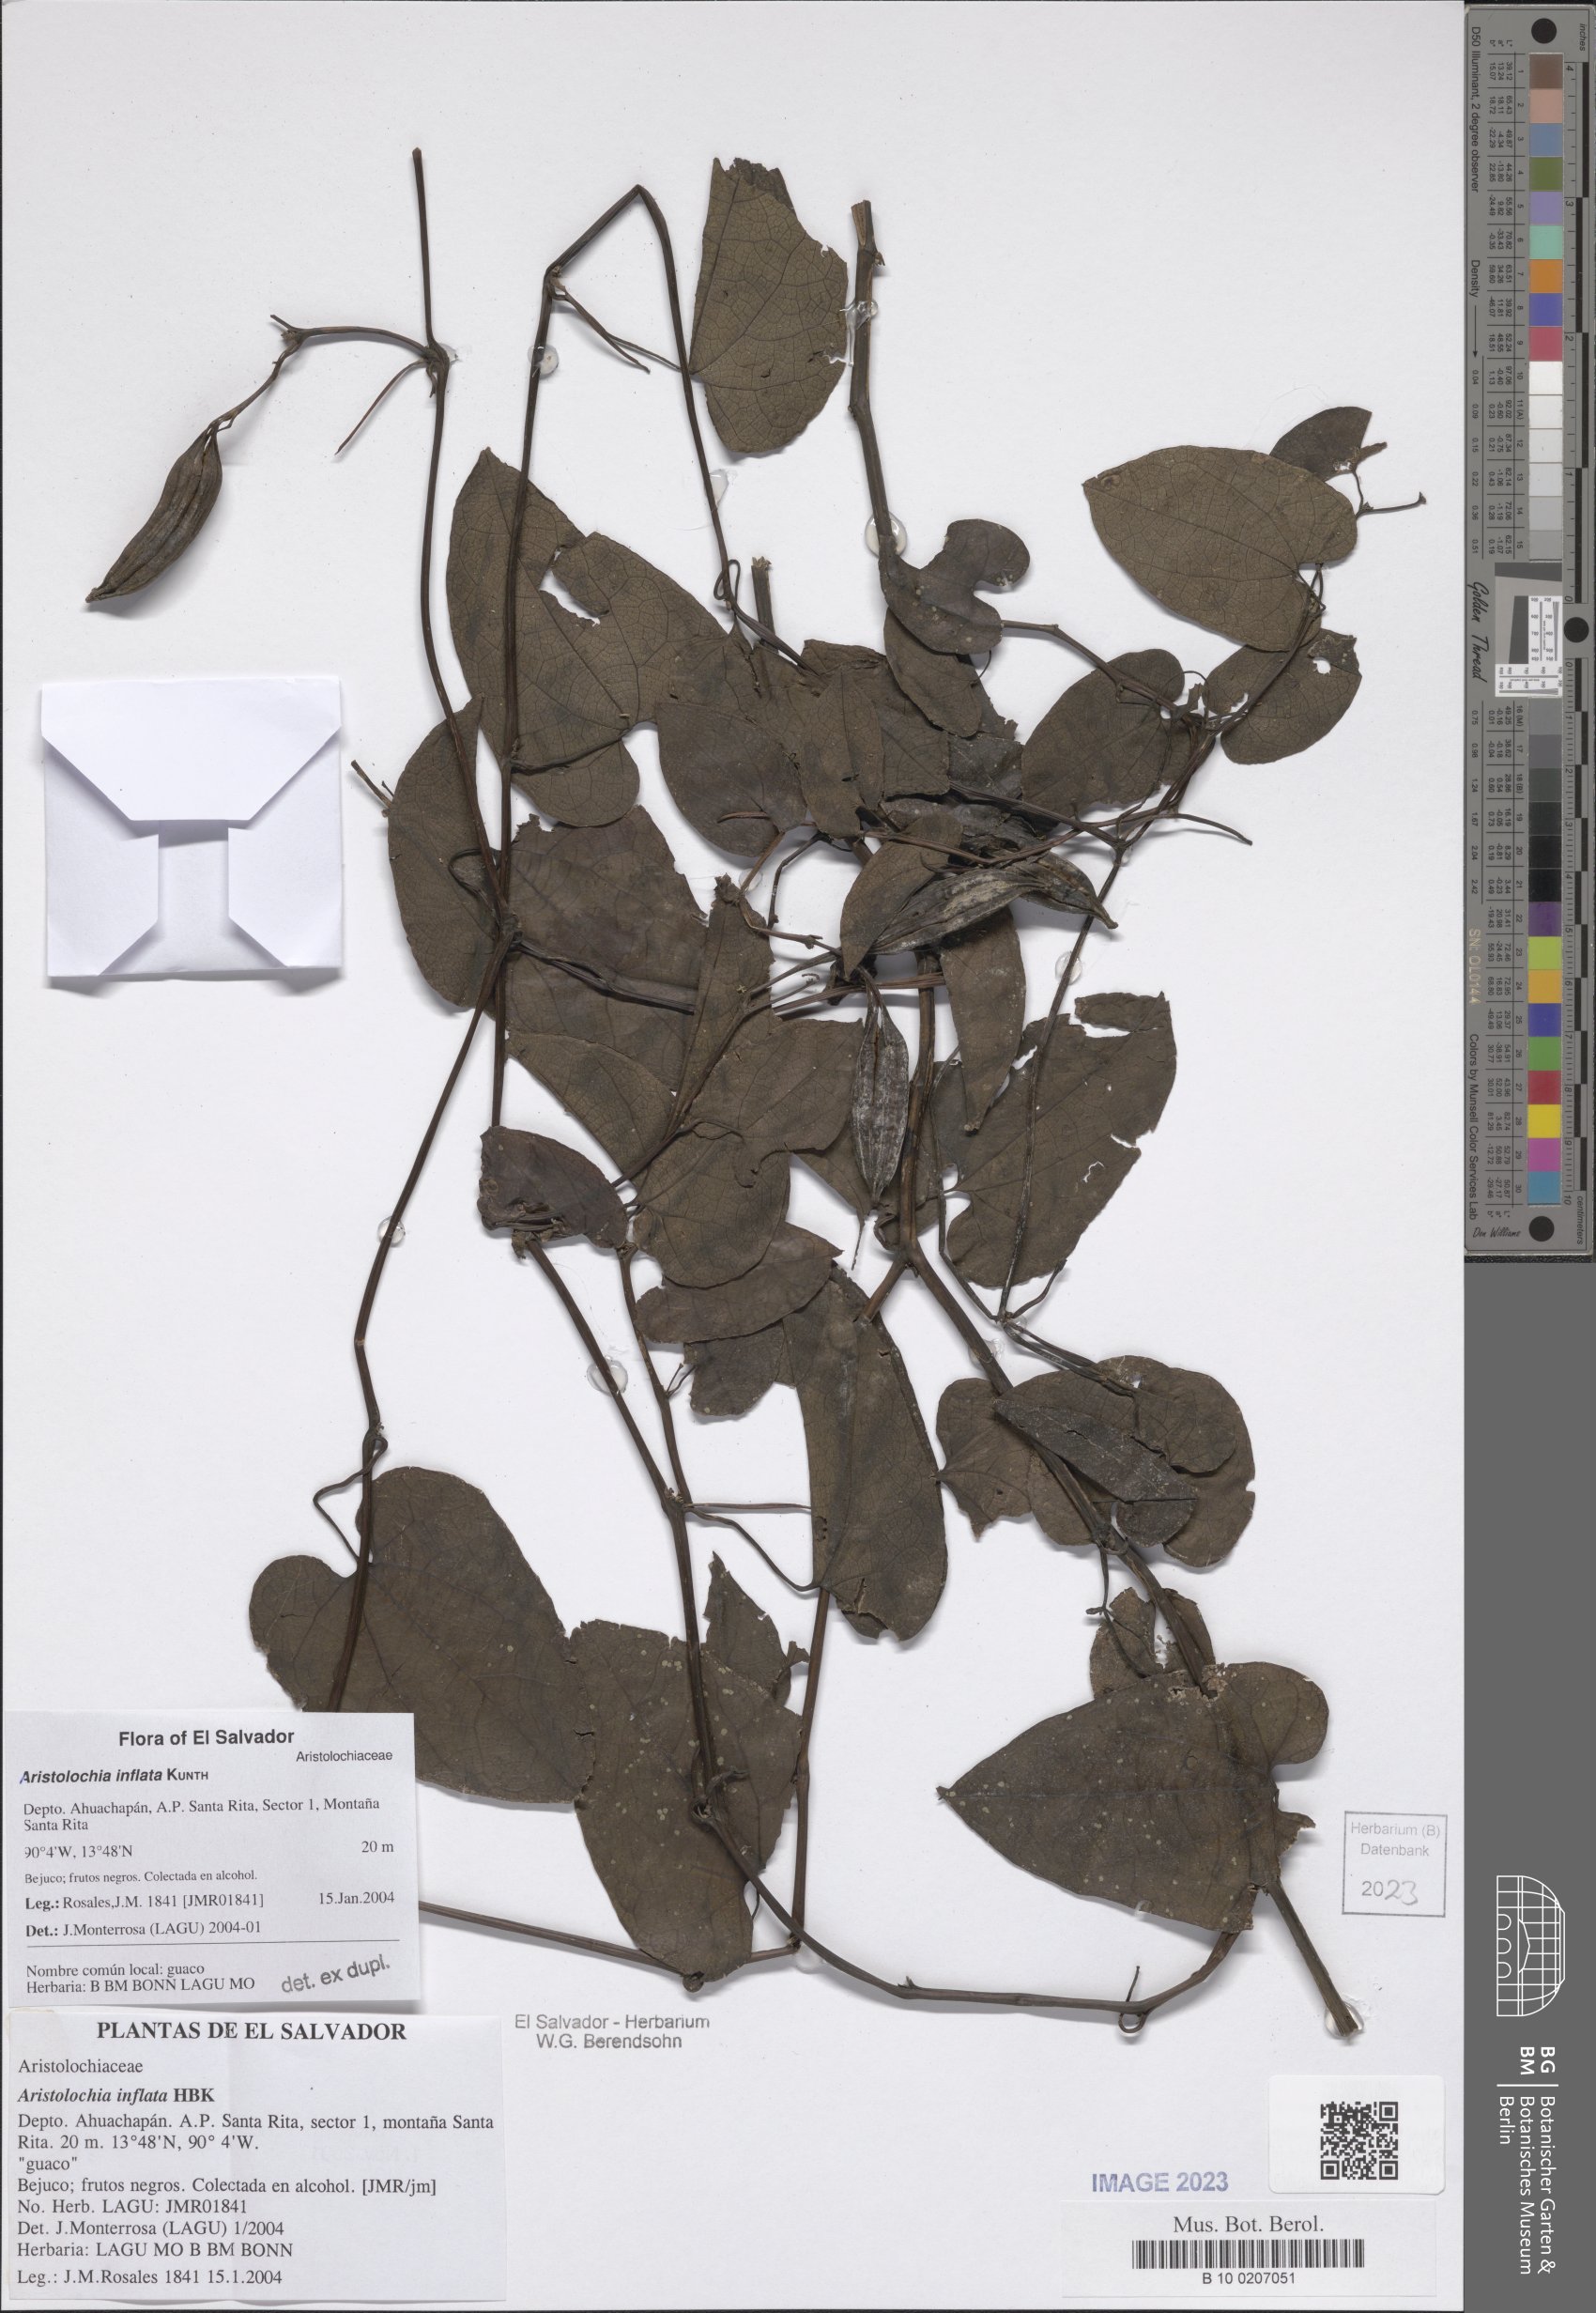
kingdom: Plantae
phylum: Tracheophyta
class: Magnoliopsida
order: Piperales
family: Aristolochiaceae
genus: Aristolochia
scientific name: Aristolochia inflata
